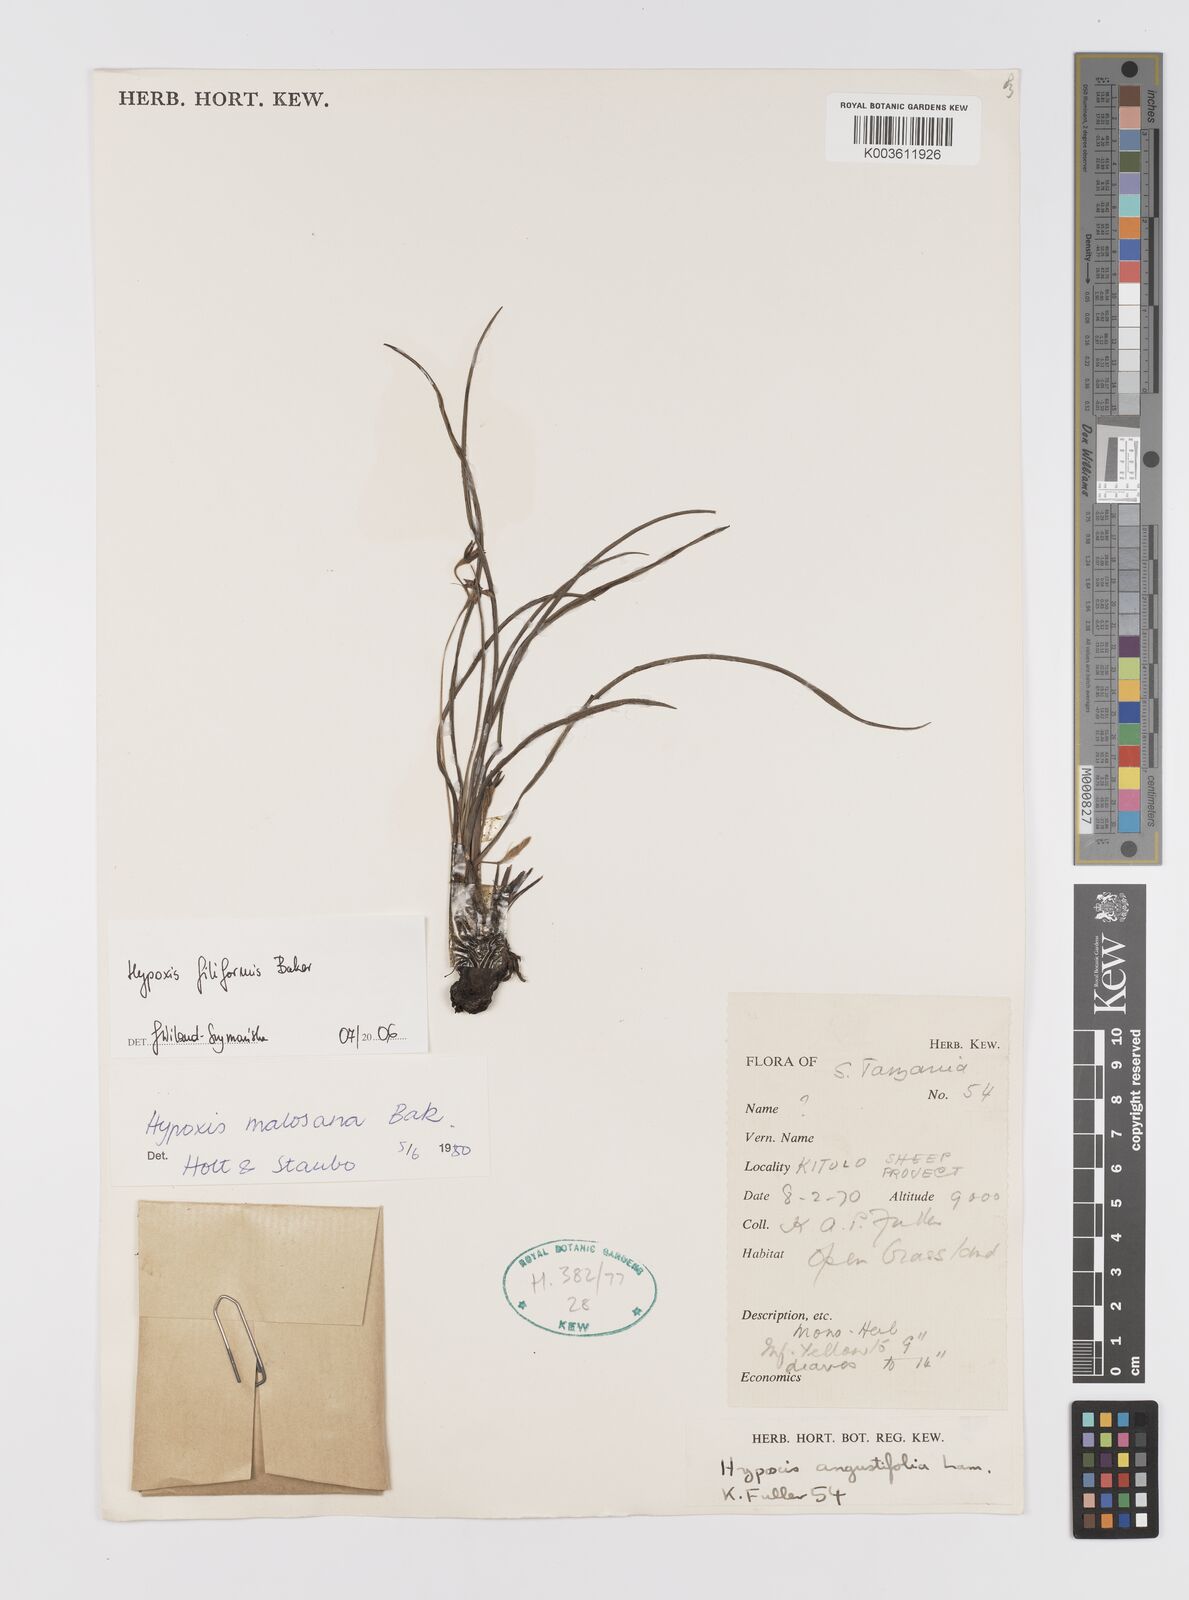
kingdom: Plantae
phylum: Tracheophyta
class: Liliopsida
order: Asparagales
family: Hypoxidaceae
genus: Hypoxis
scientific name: Hypoxis filiformis
